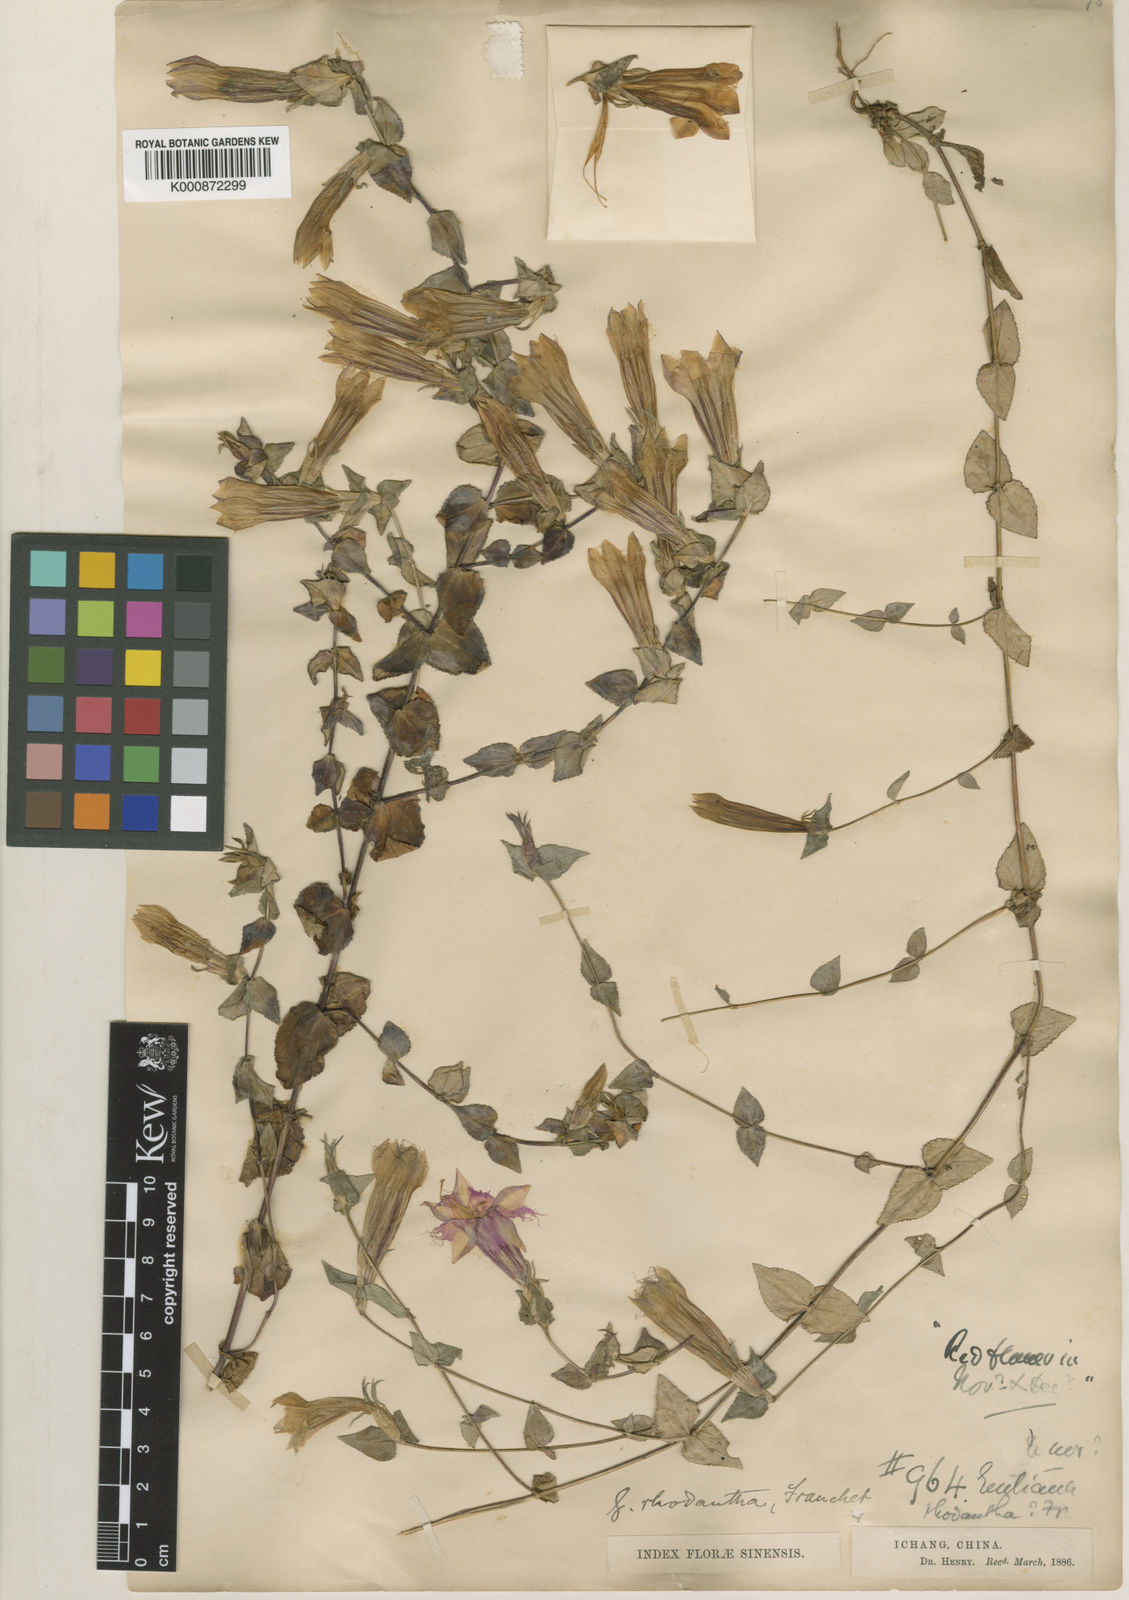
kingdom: Plantae
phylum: Tracheophyta
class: Magnoliopsida
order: Gentianales
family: Gentianaceae
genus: Metagentiana
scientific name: Metagentiana rhodantha
